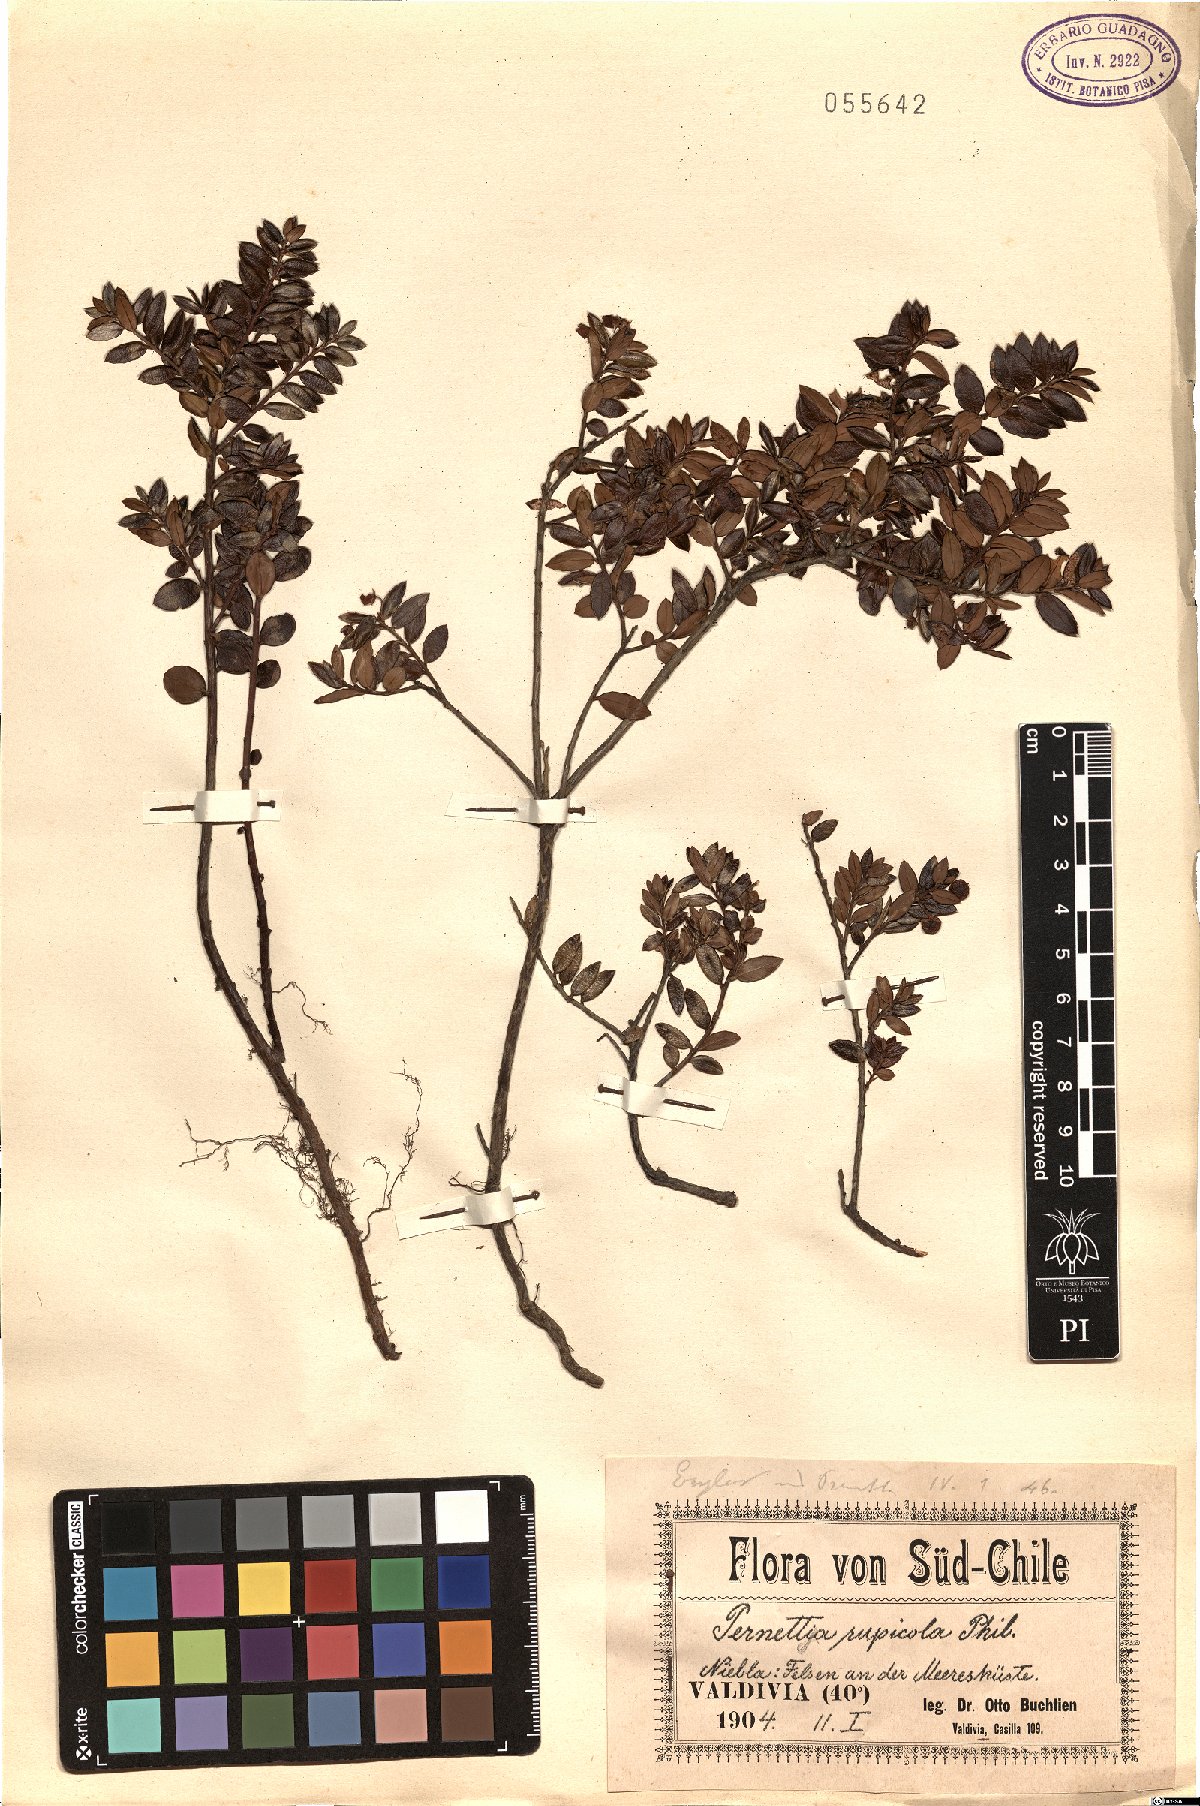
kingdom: Plantae
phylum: Tracheophyta
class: Magnoliopsida
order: Ericales
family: Ericaceae
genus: Gaultheria
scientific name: Gaultheria mucronata
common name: Prickly heath
